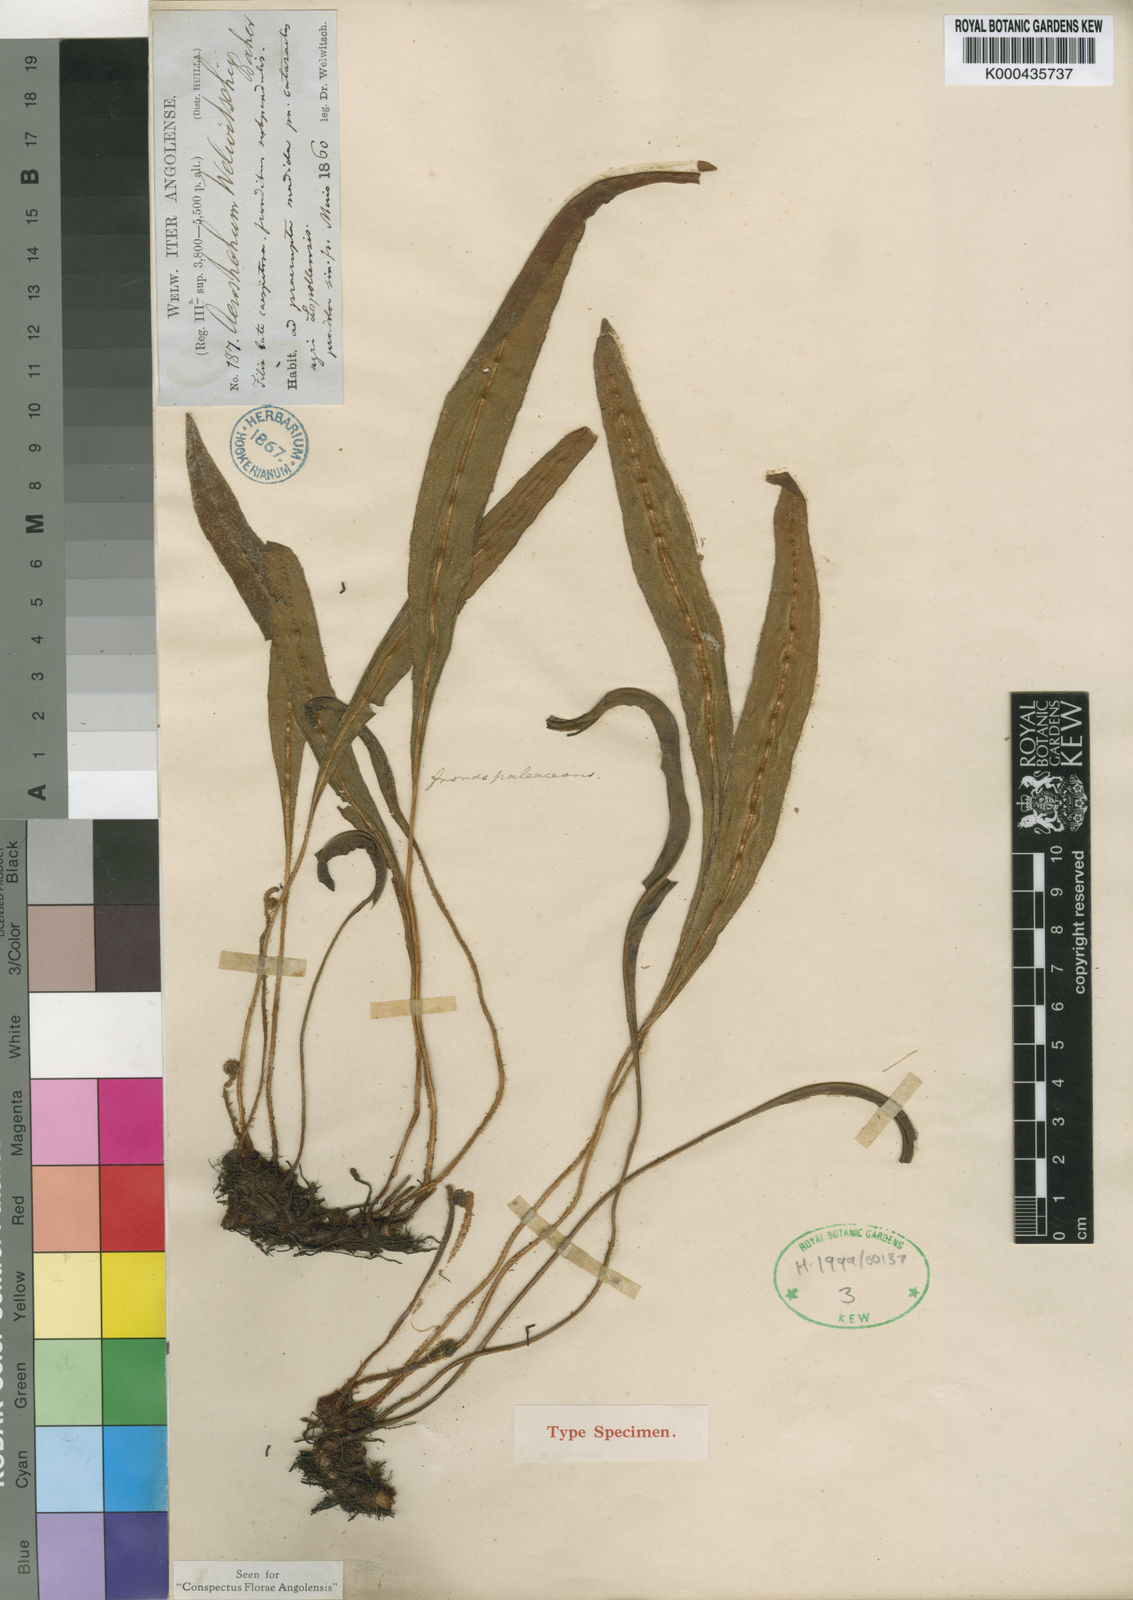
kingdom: Plantae
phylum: Tracheophyta
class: Polypodiopsida
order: Polypodiales
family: Dryopteridaceae
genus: Elaphoglossum
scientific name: Elaphoglossum welwitschii
